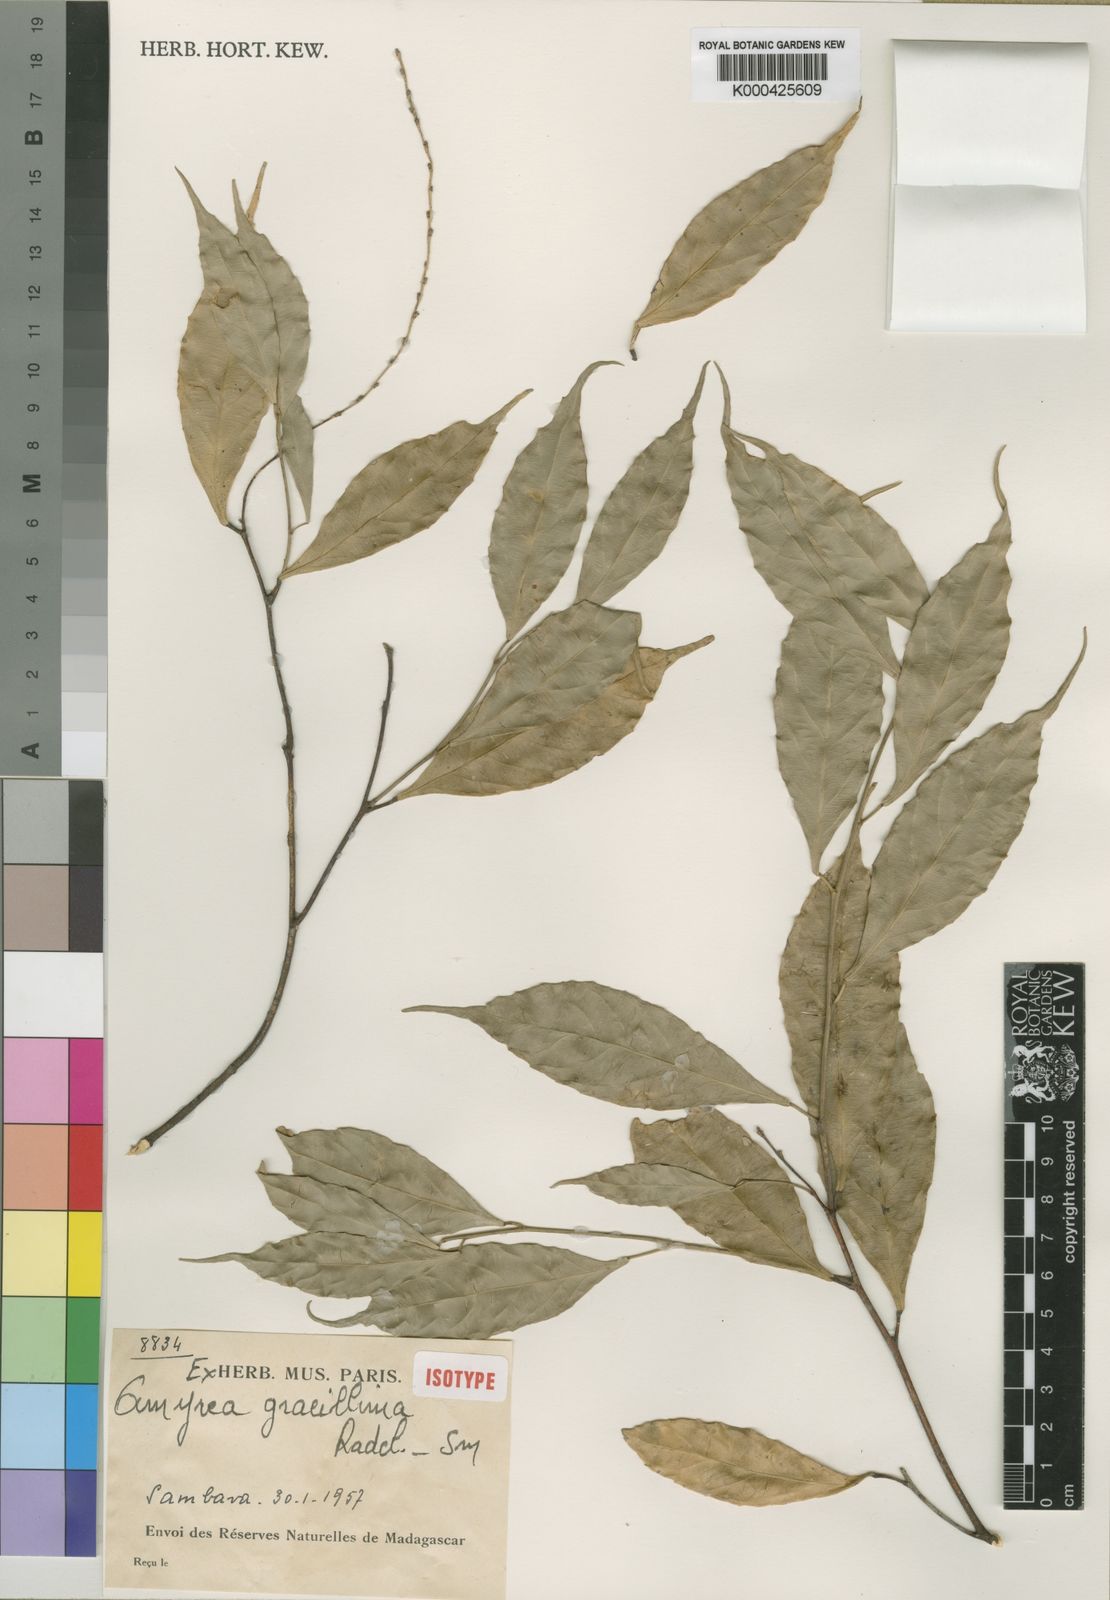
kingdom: Plantae
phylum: Tracheophyta
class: Magnoliopsida
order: Malpighiales
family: Euphorbiaceae
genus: Amyrea
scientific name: Amyrea gracillima
